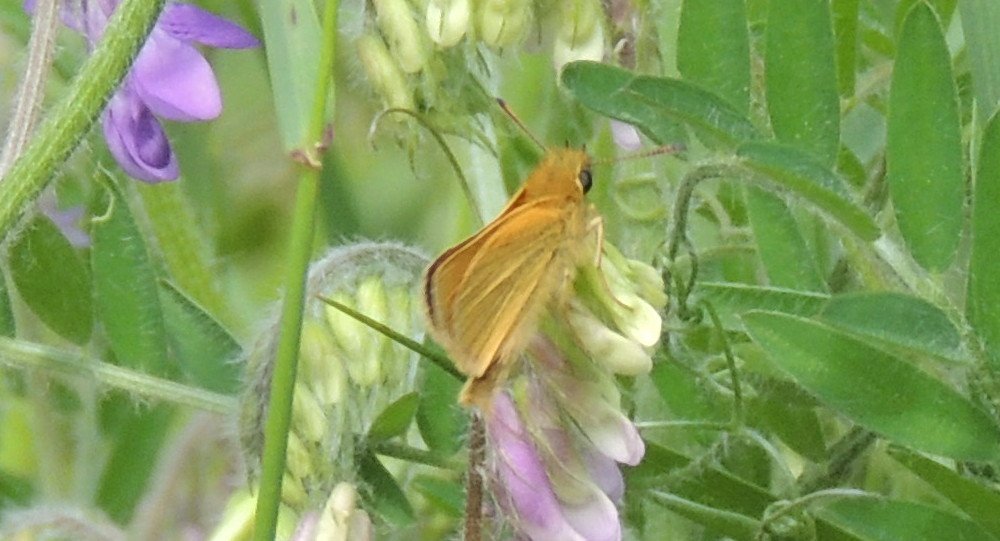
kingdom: Animalia
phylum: Arthropoda
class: Insecta
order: Lepidoptera
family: Hesperiidae
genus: Thymelicus
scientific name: Thymelicus lineola
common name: European Skipper
